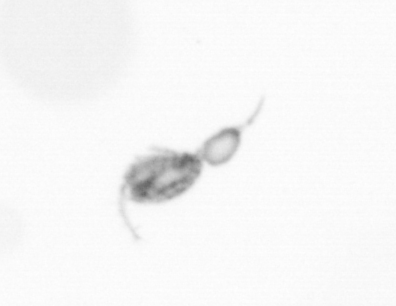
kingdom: Animalia
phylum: Arthropoda
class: Copepoda
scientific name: Copepoda
